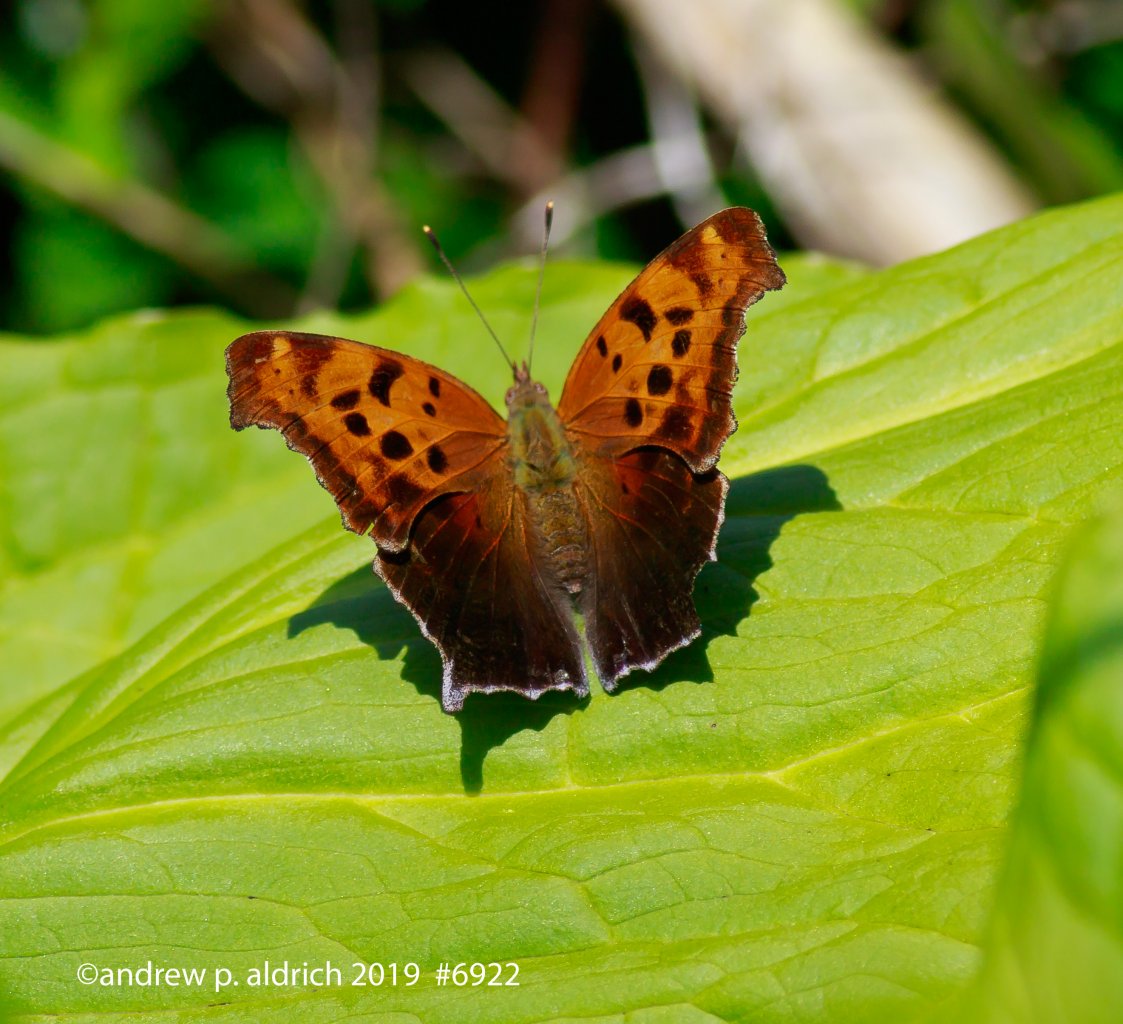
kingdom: Animalia
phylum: Arthropoda
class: Insecta
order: Lepidoptera
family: Nymphalidae
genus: Polygonia
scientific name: Polygonia interrogationis
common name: Question Mark
